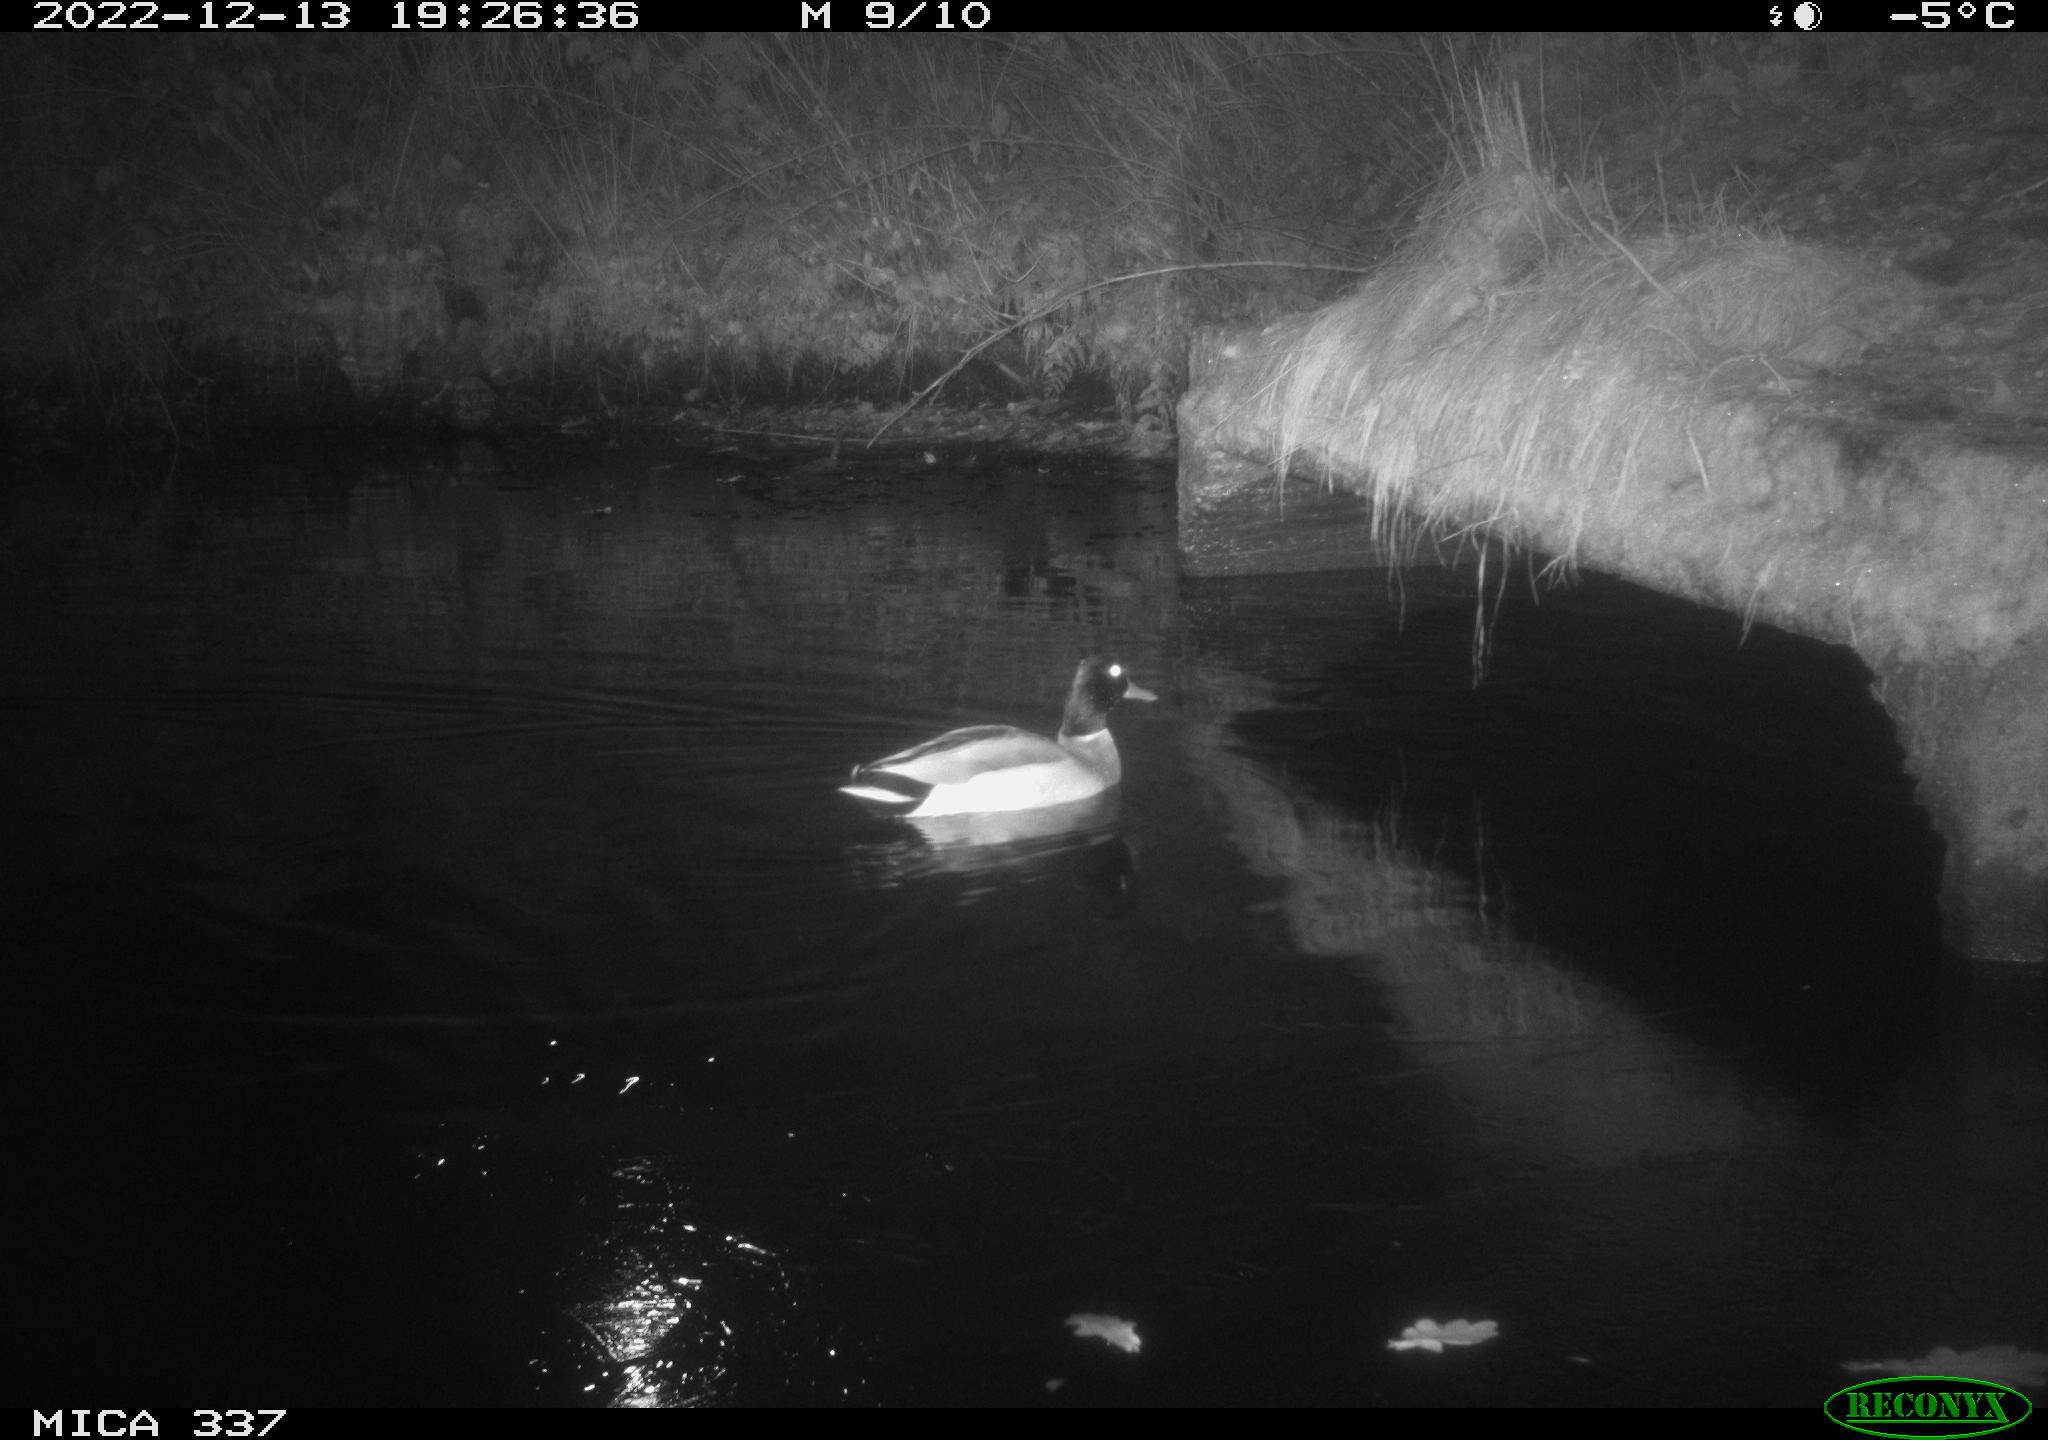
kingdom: Animalia
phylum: Chordata
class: Aves
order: Anseriformes
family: Anatidae
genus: Anas
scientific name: Anas
